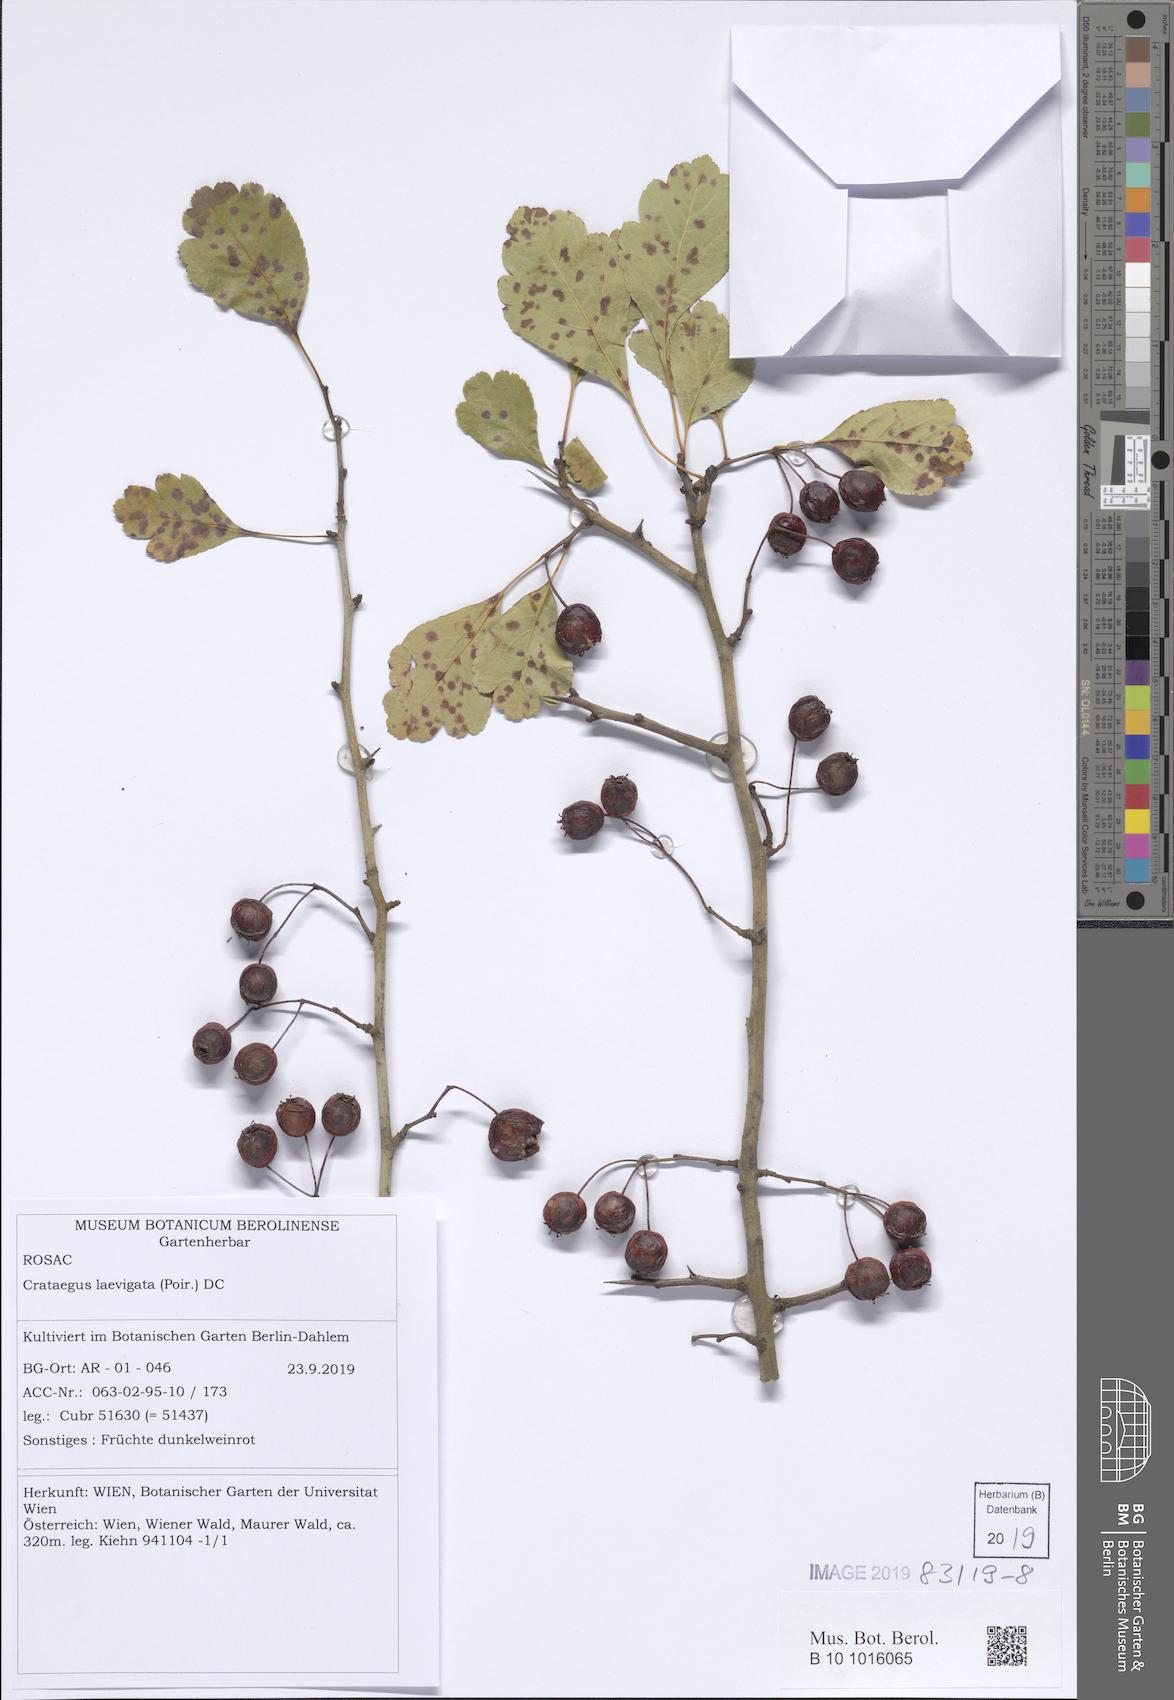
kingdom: Plantae
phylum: Tracheophyta
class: Magnoliopsida
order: Rosales
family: Rosaceae
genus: Crataegus
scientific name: Crataegus laevigata
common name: Midland hawthorn
